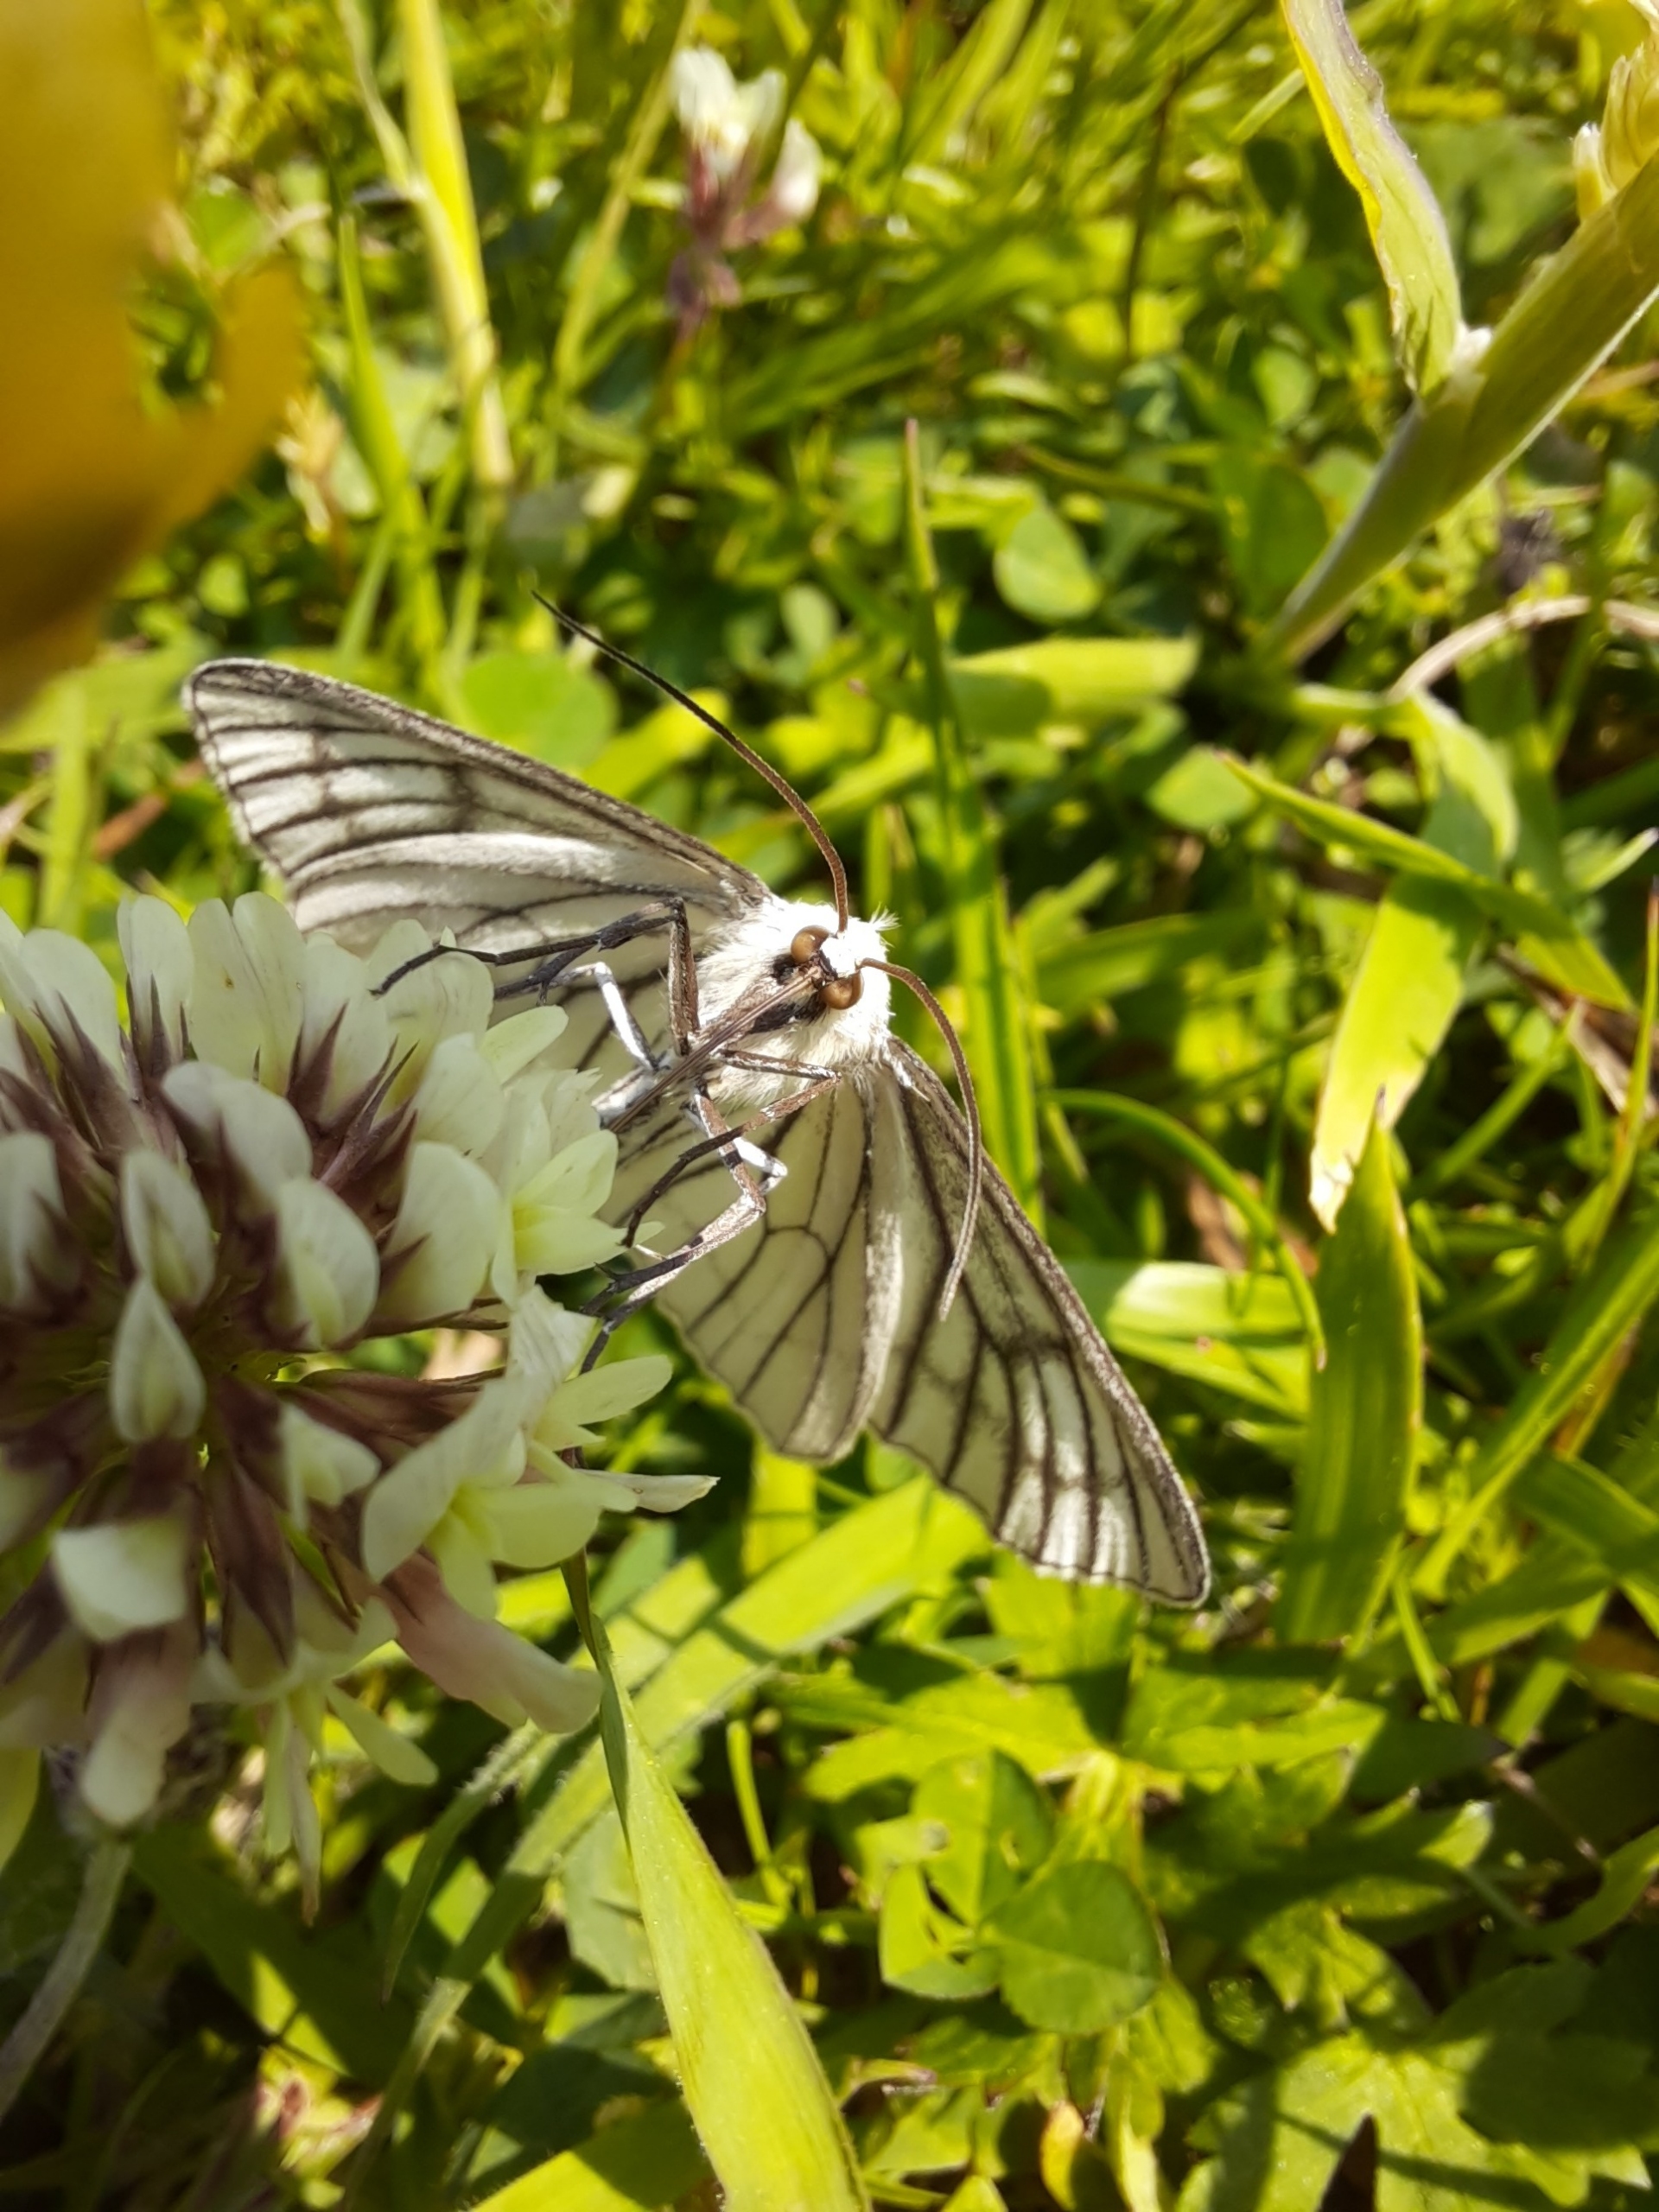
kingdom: Animalia
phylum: Arthropoda
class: Insecta
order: Lepidoptera
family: Geometridae
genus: Siona
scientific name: Siona lineata
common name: Hvidvingemåler
